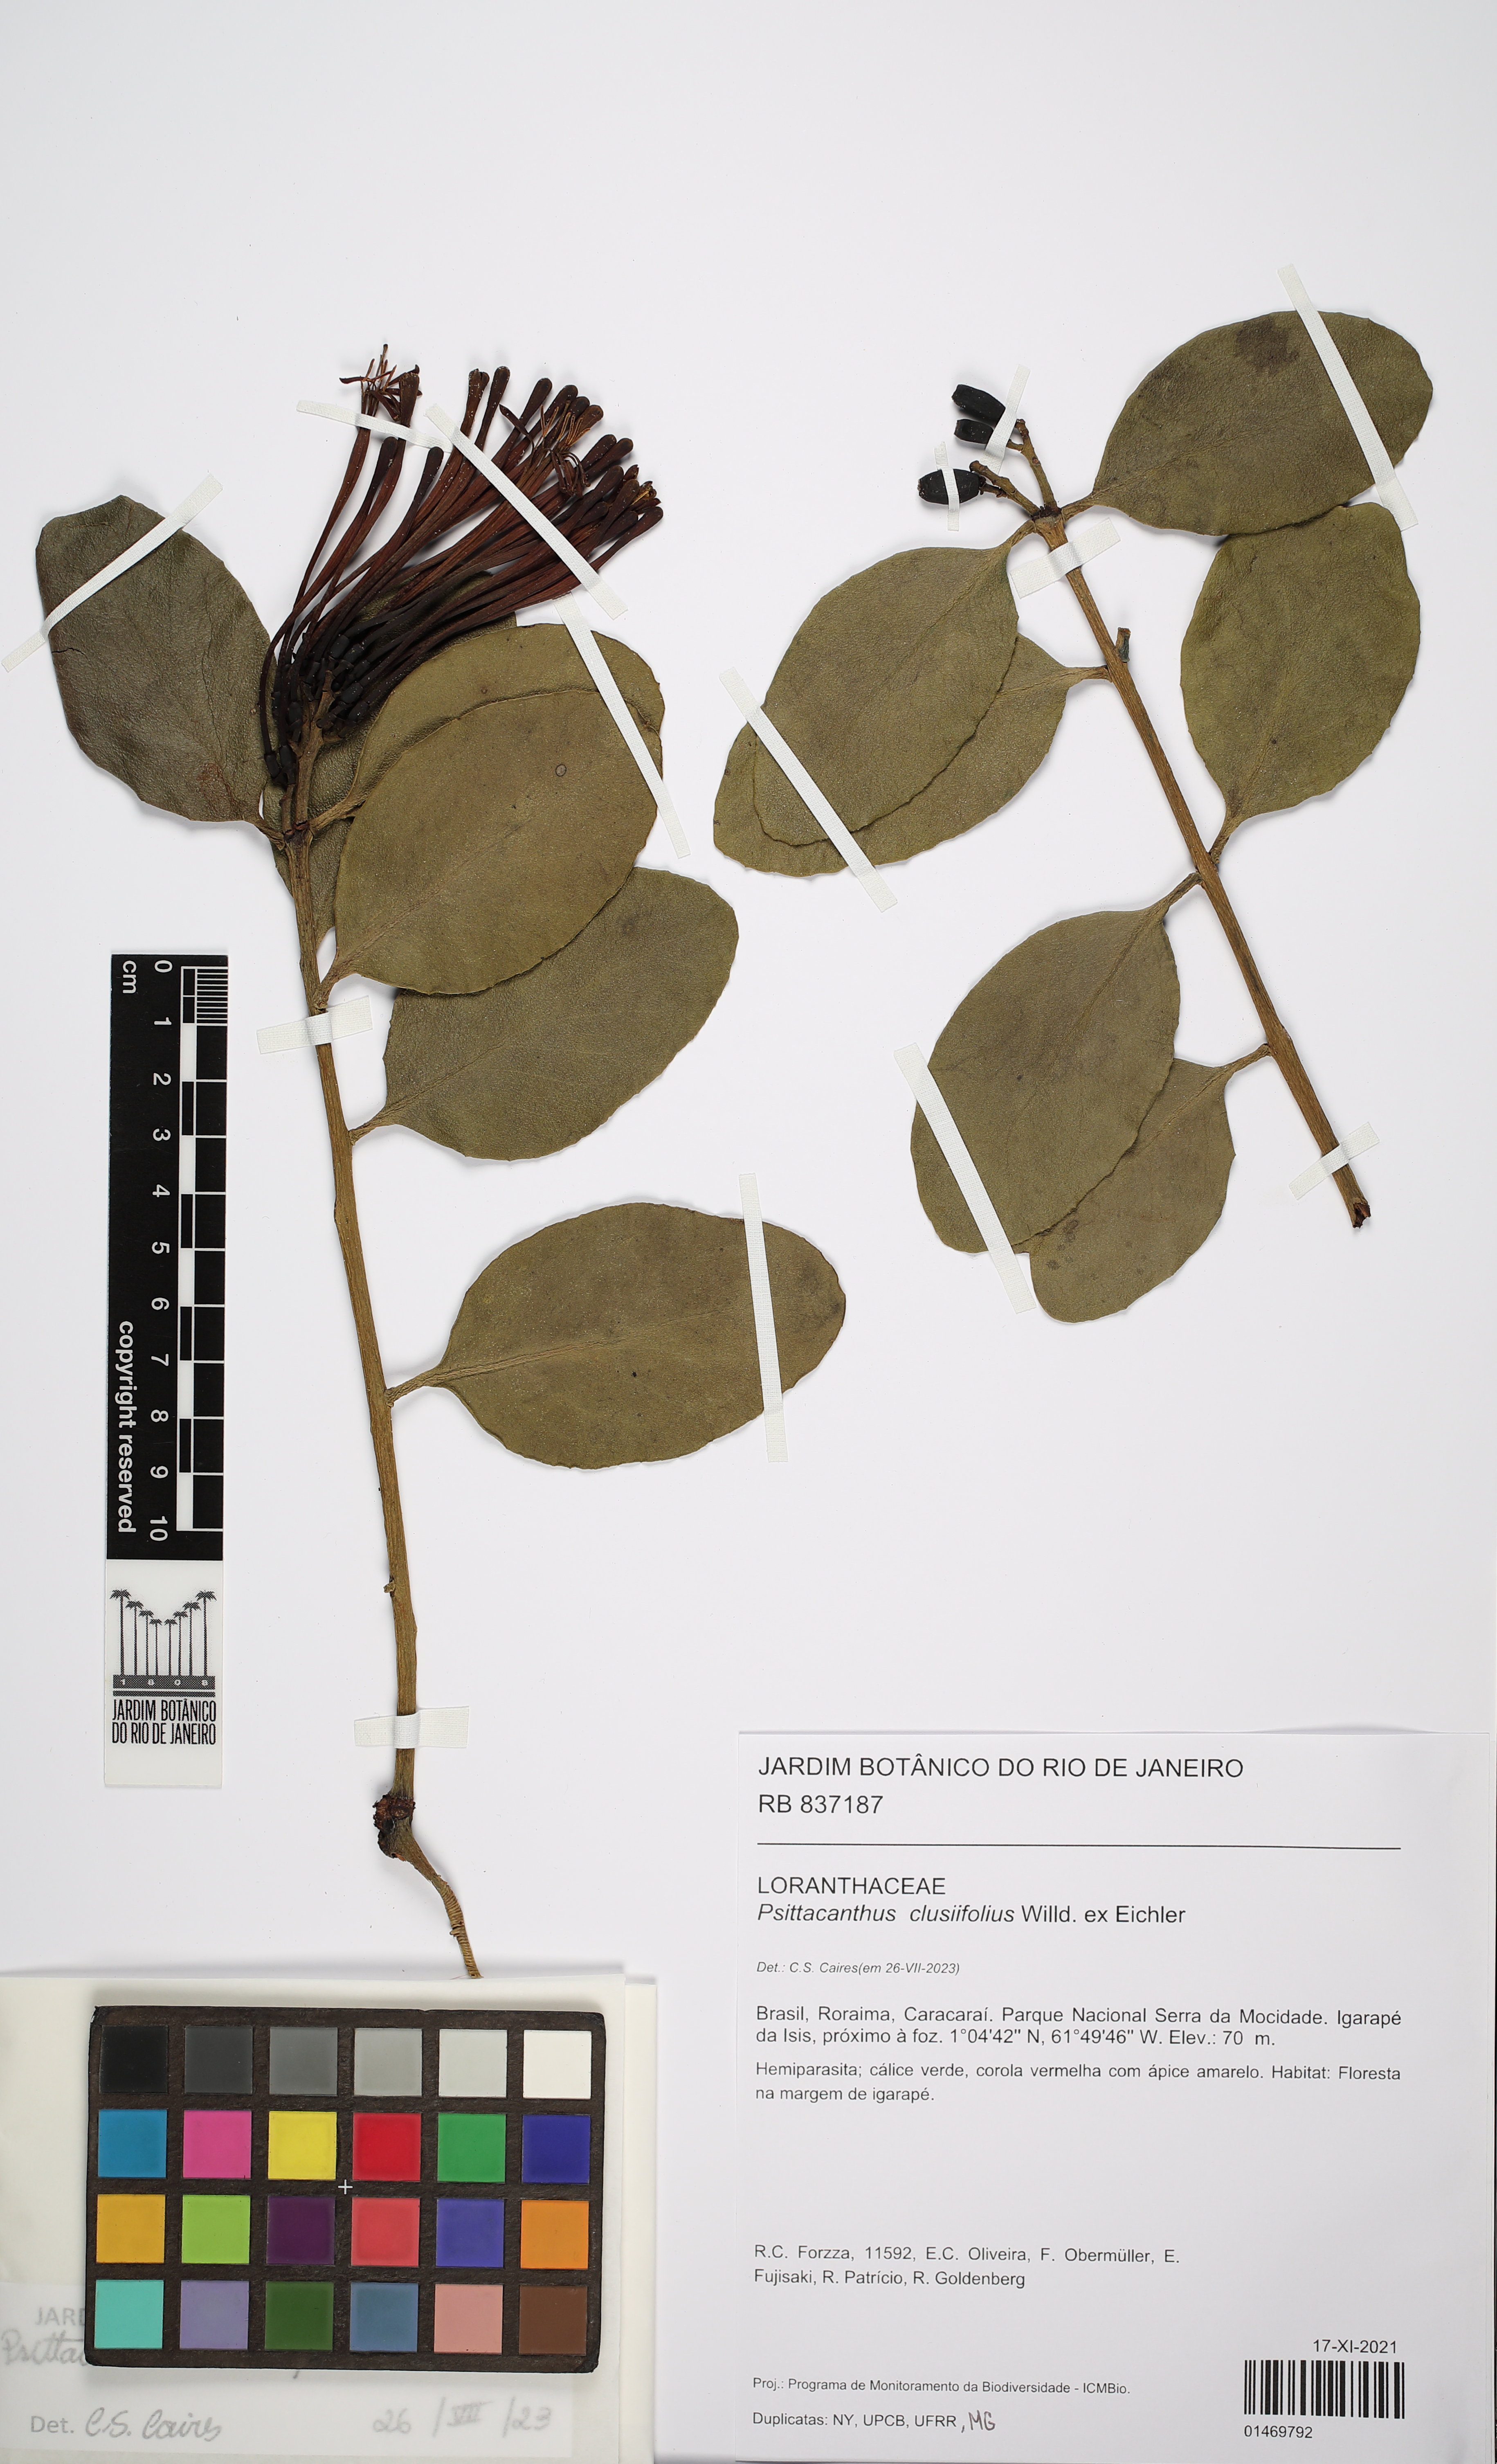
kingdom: Plantae
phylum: Tracheophyta
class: Magnoliopsida
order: Santalales
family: Loranthaceae
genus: Psittacanthus
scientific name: Psittacanthus clusiifolius
